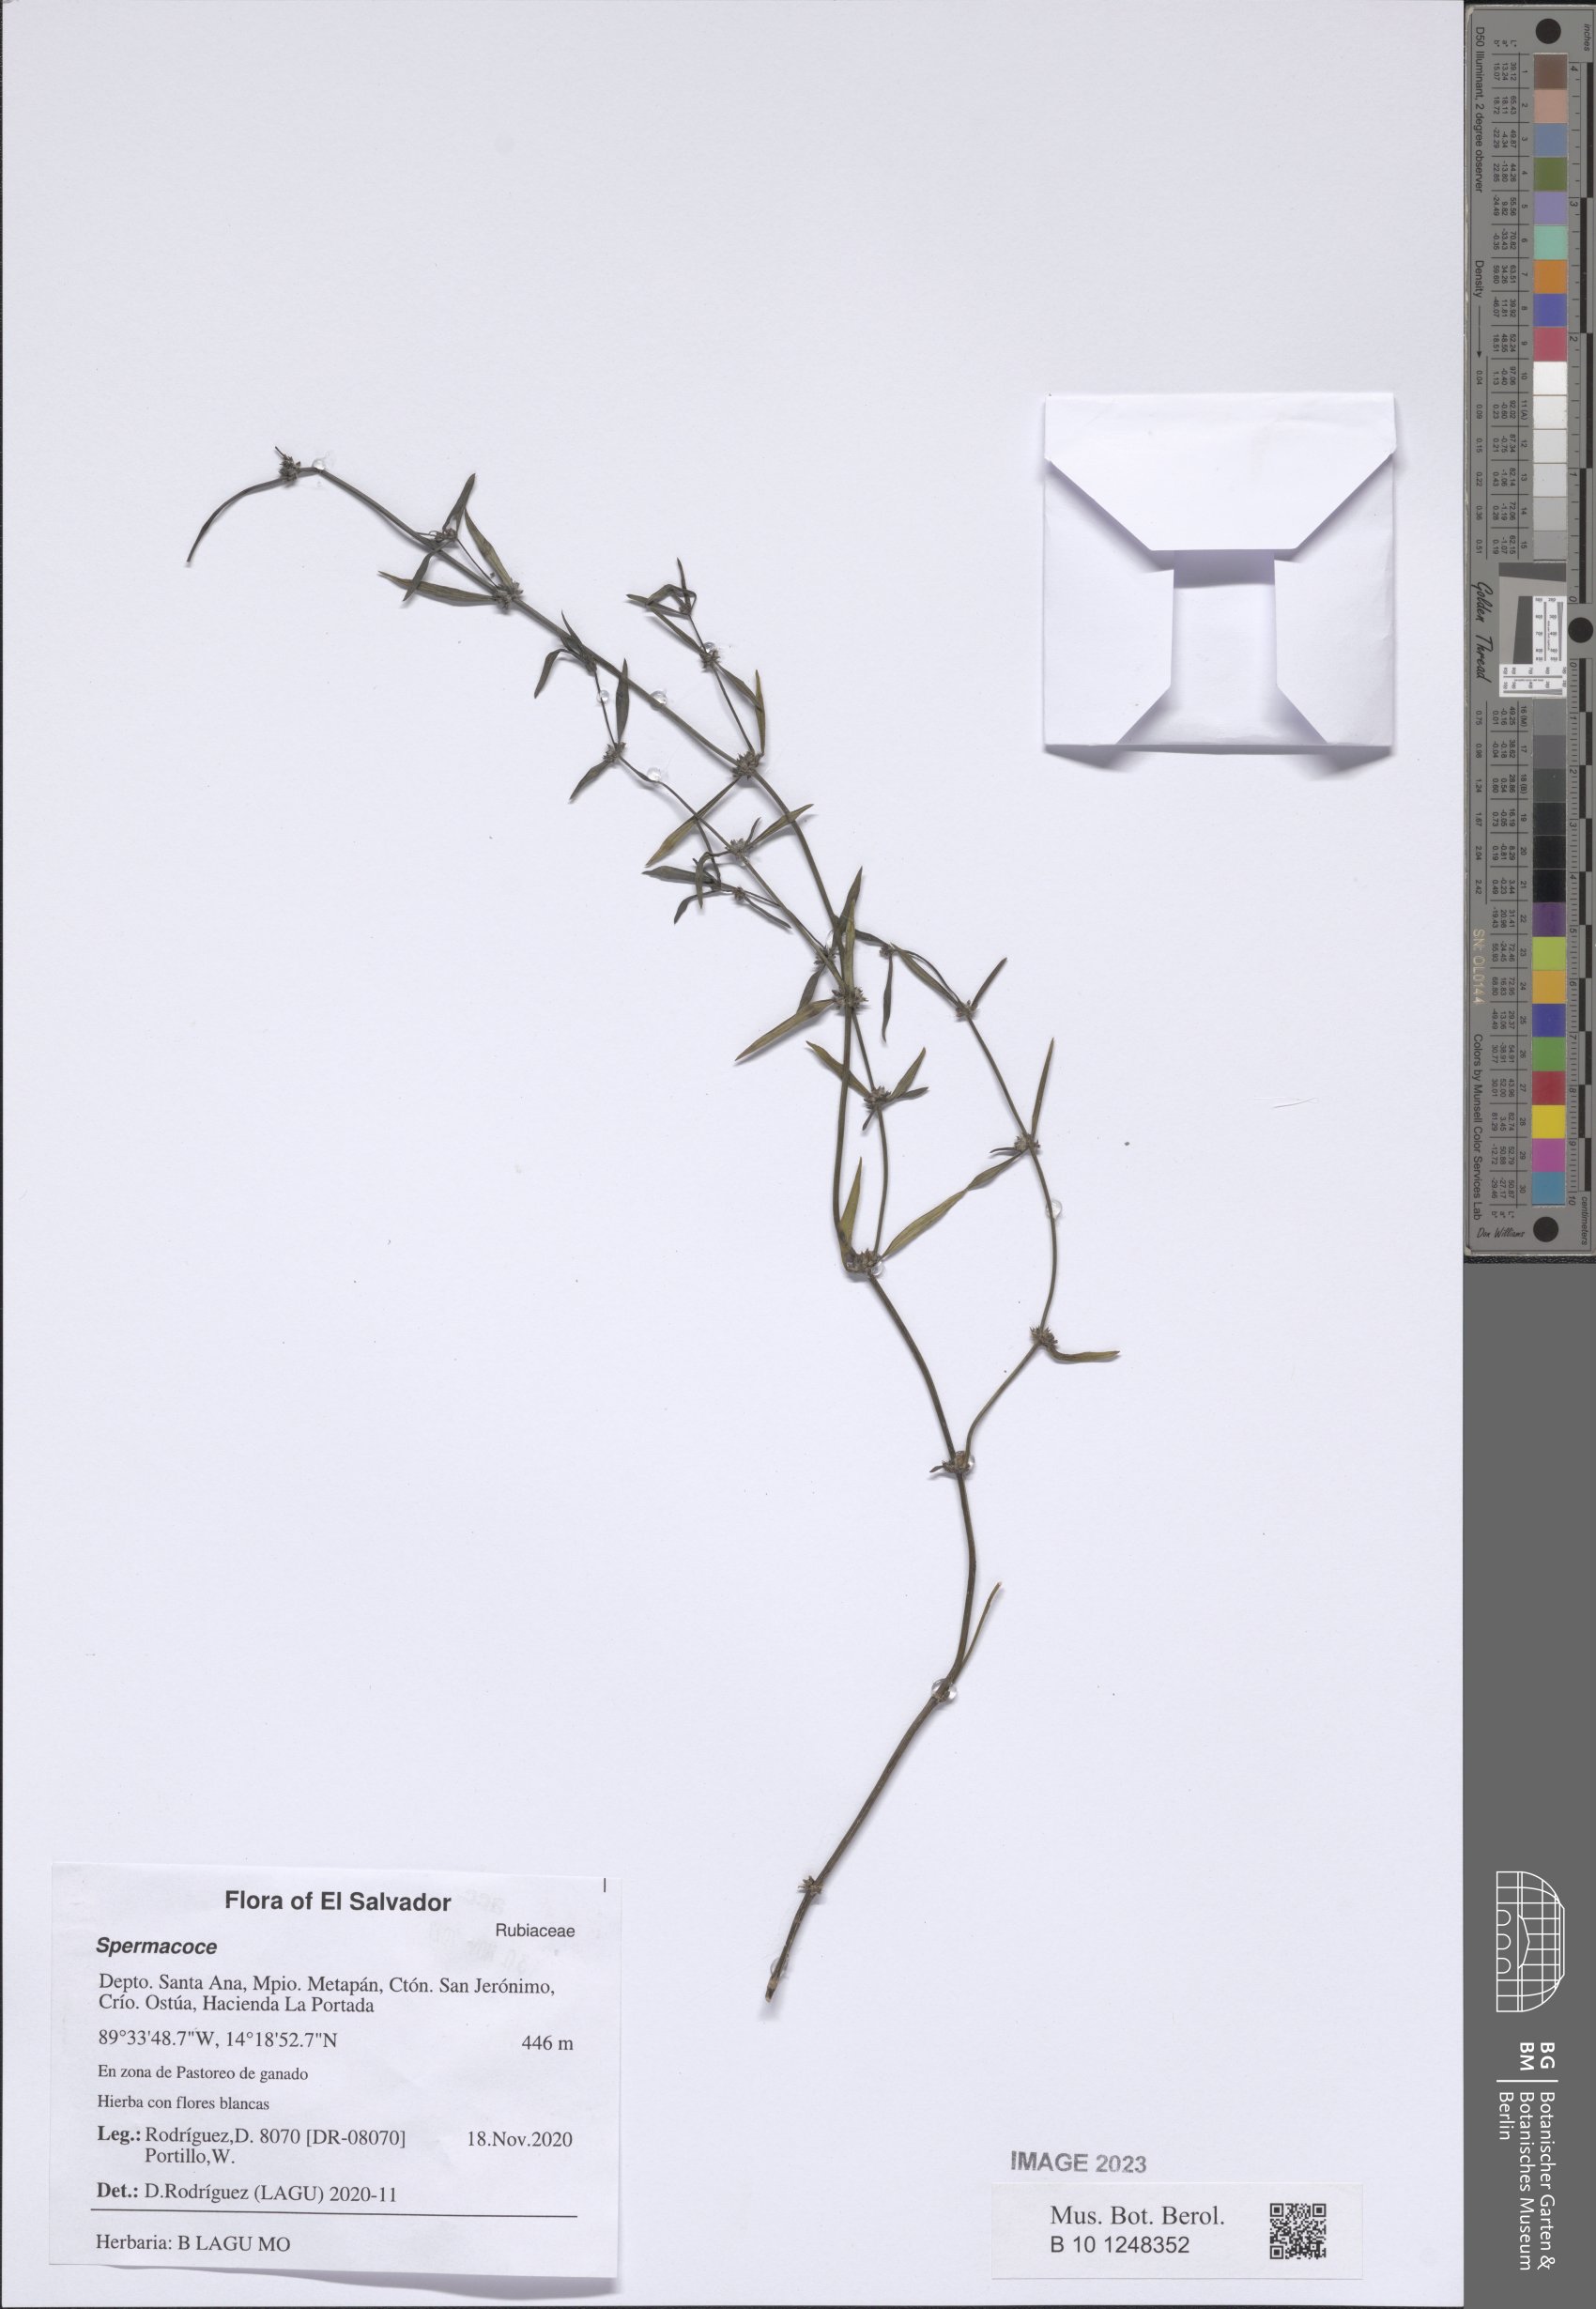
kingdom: Plantae
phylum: Tracheophyta
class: Magnoliopsida
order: Gentianales
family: Rubiaceae
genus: Spermacoce
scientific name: Spermacoce
